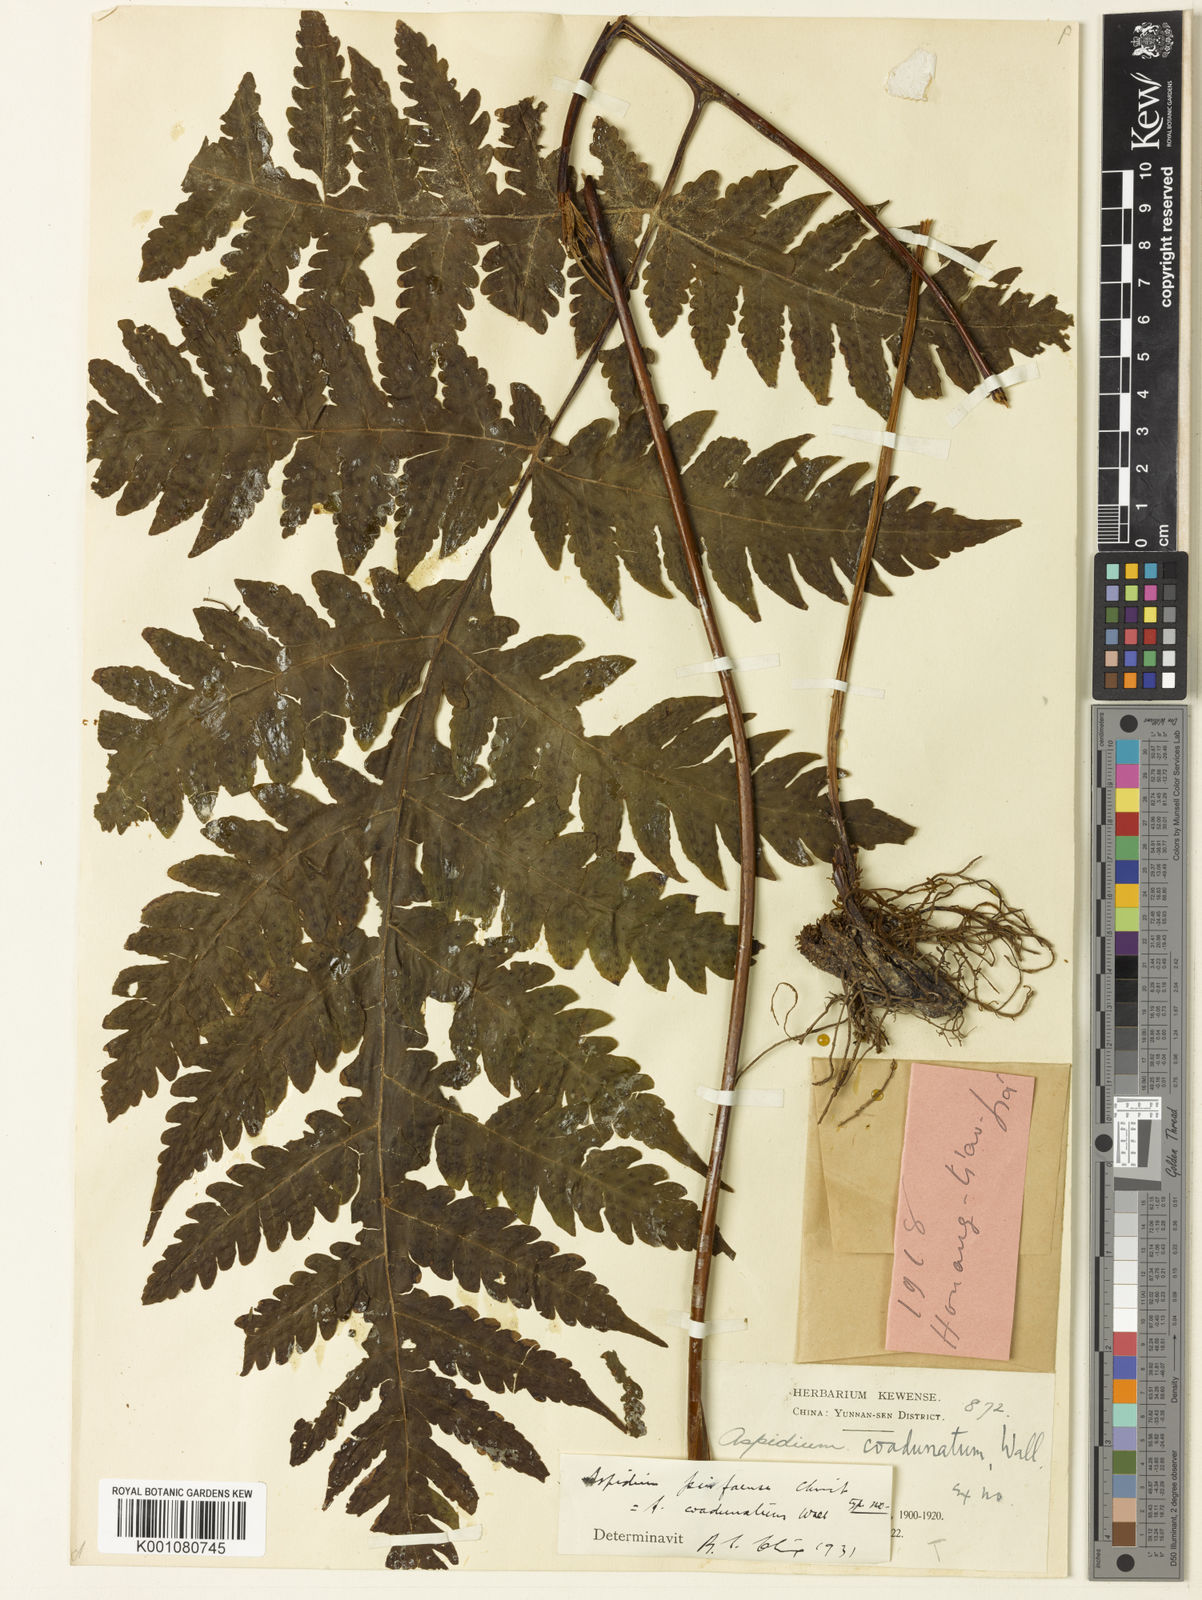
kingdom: Plantae
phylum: Tracheophyta
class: Polypodiopsida
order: Polypodiales
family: Tectariaceae
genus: Tectaria
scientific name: Tectaria coadunata
